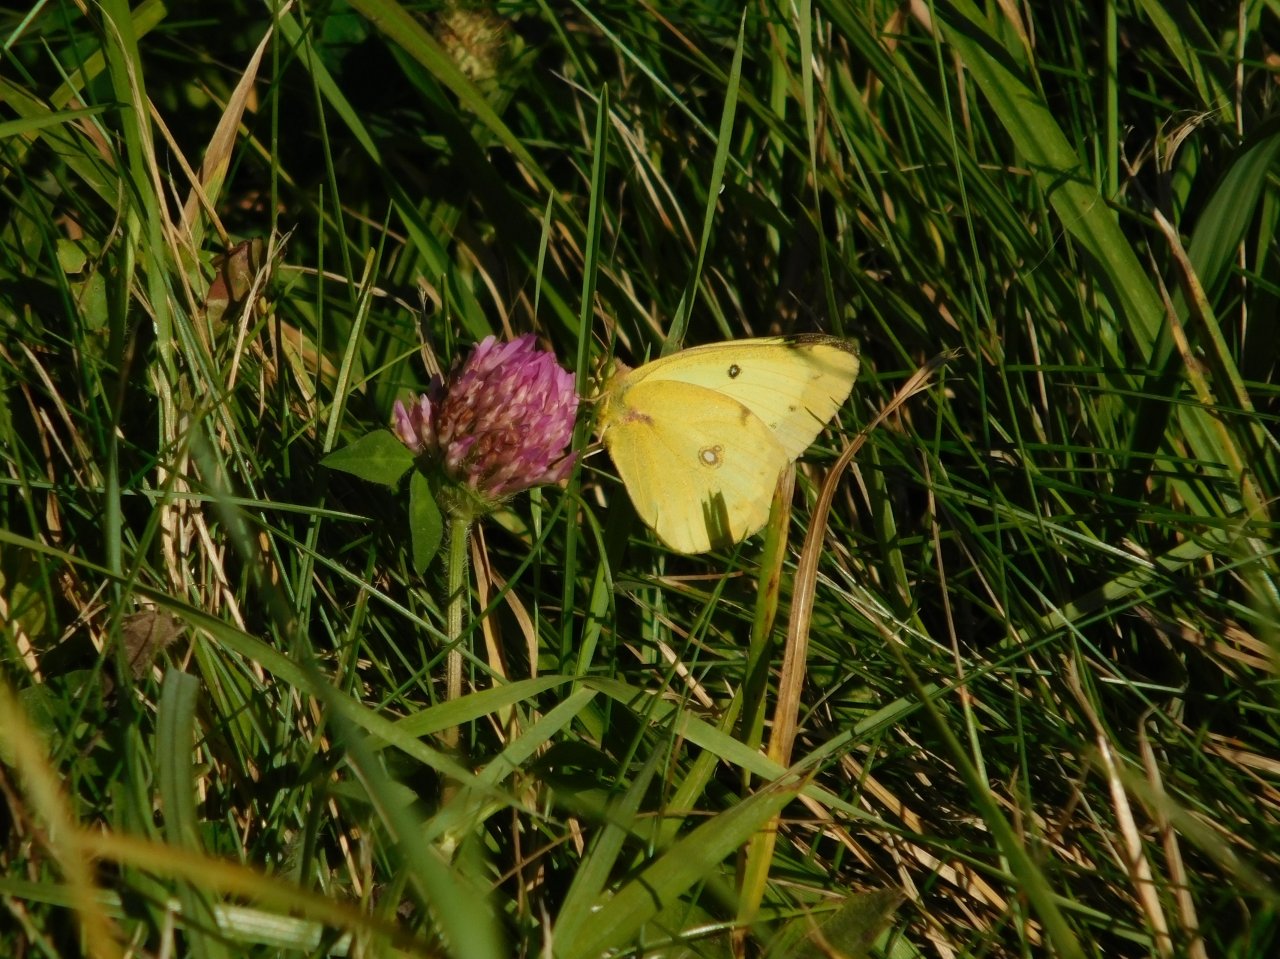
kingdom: Animalia
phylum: Arthropoda
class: Insecta
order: Lepidoptera
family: Pieridae
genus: Colias
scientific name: Colias philodice
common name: Clouded Sulphur
